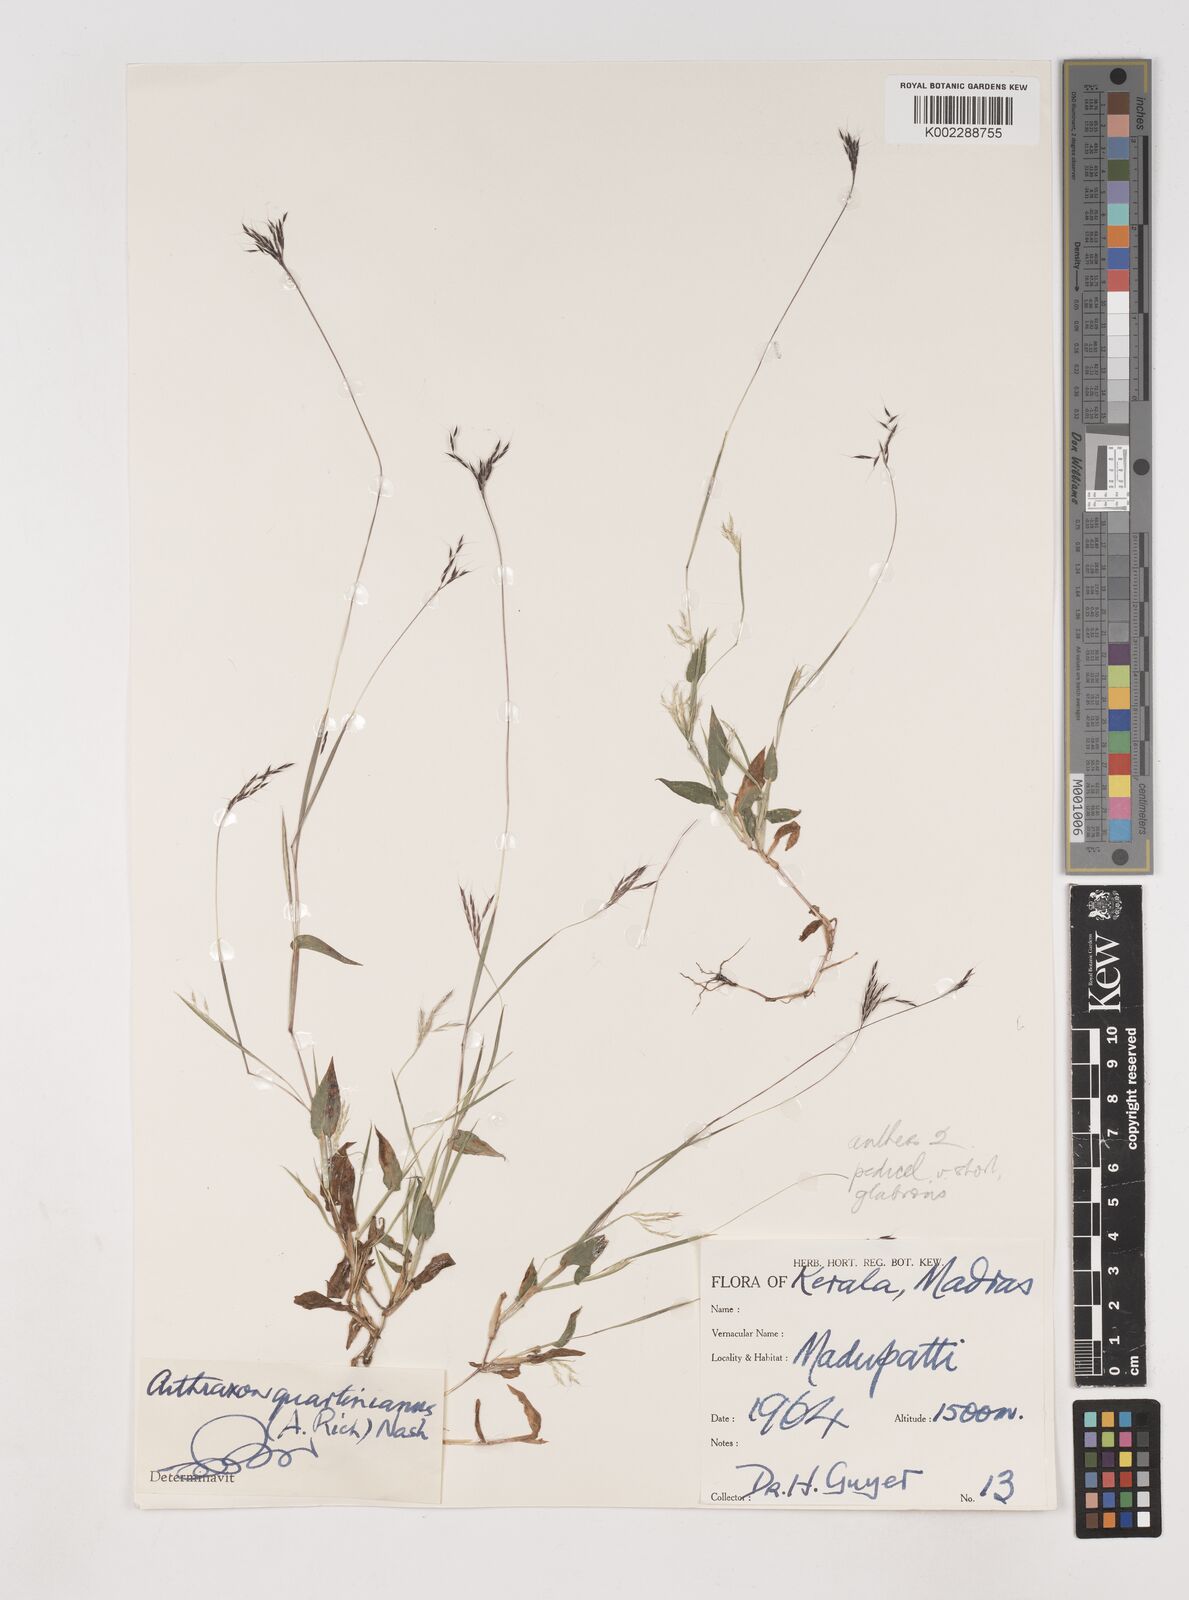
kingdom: Plantae
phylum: Tracheophyta
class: Liliopsida
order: Poales
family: Poaceae
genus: Arthraxon
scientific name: Arthraxon hispidus
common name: Small carpgrass
